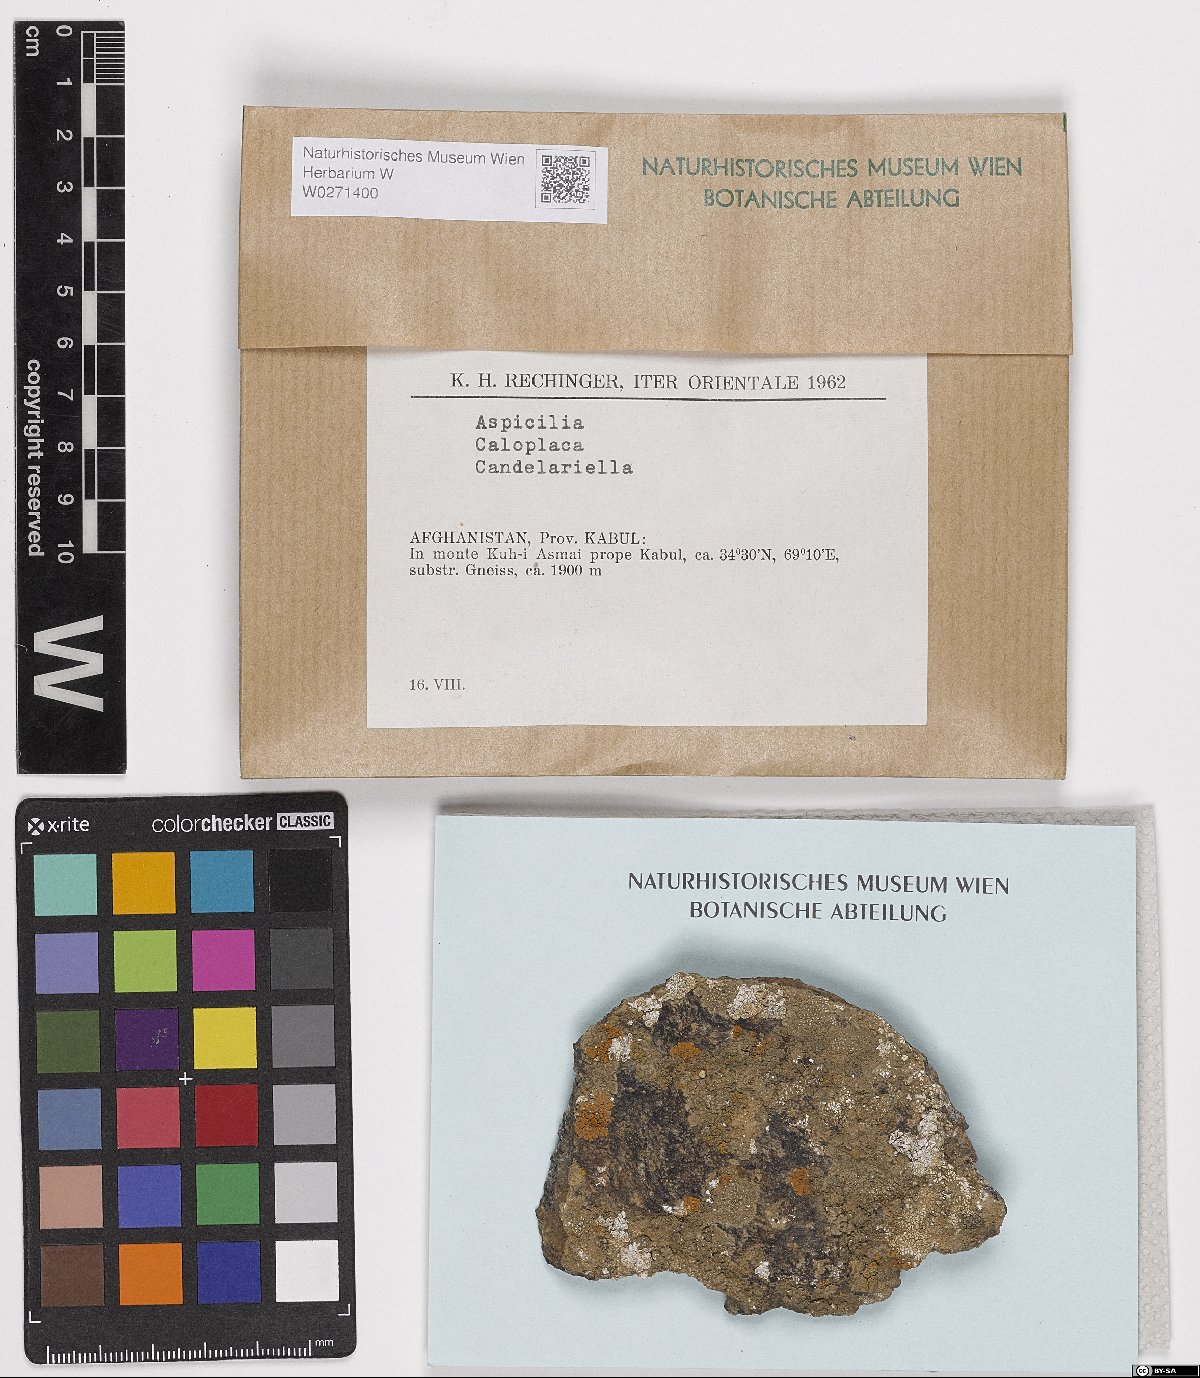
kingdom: Fungi
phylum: Ascomycota
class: Lecanoromycetes
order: Hymeneliales
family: Hymeneliaceae
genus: Aspicilia
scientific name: Aspicilia
